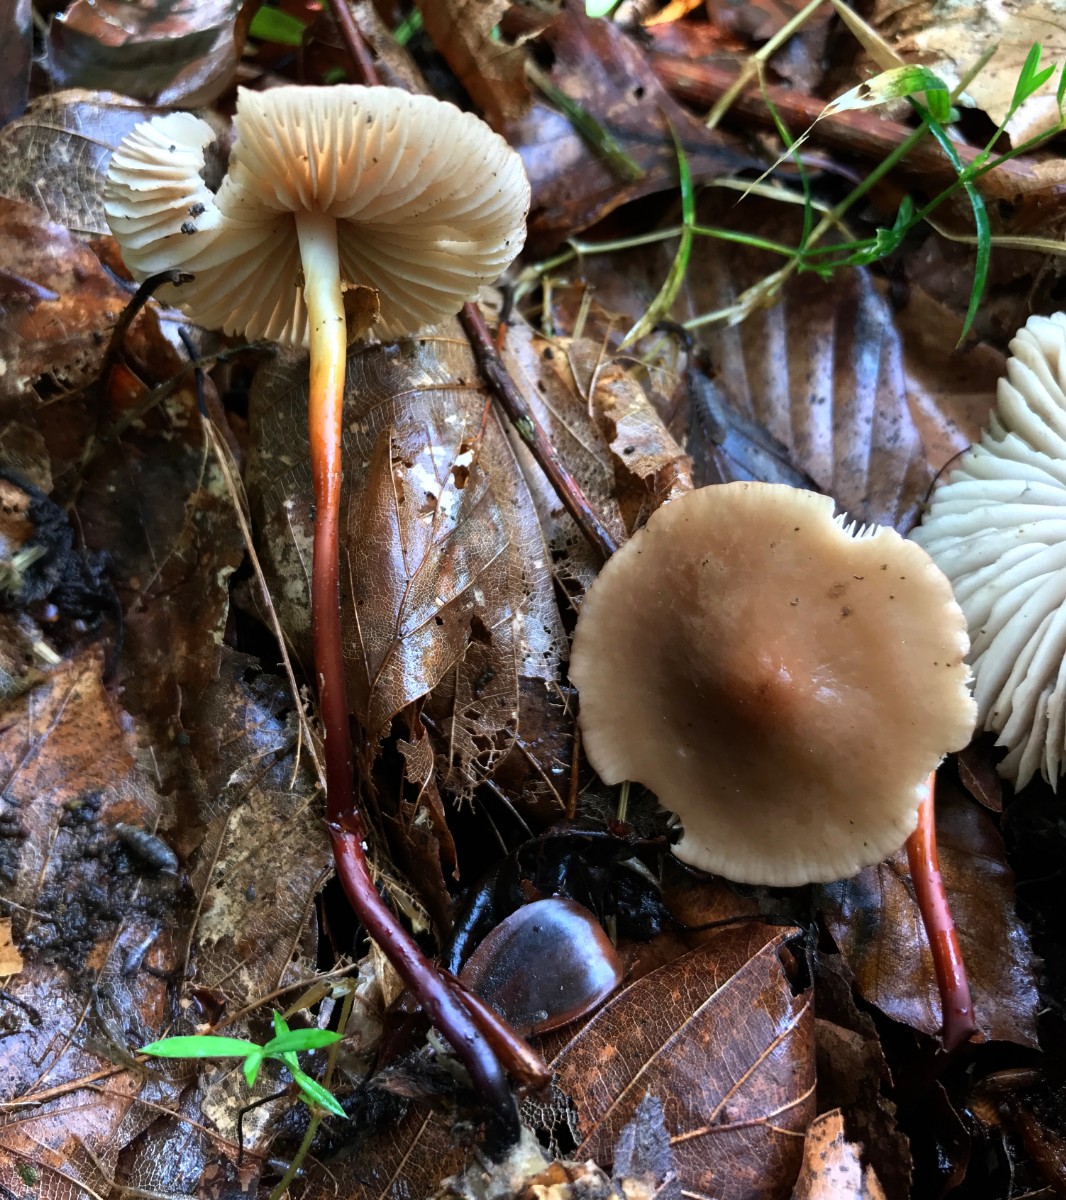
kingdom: Fungi
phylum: Basidiomycota
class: Agaricomycetes
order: Agaricales
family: Marasmiaceae
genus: Marasmius
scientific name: Marasmius cohaerens
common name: hornstokket bruskhat
